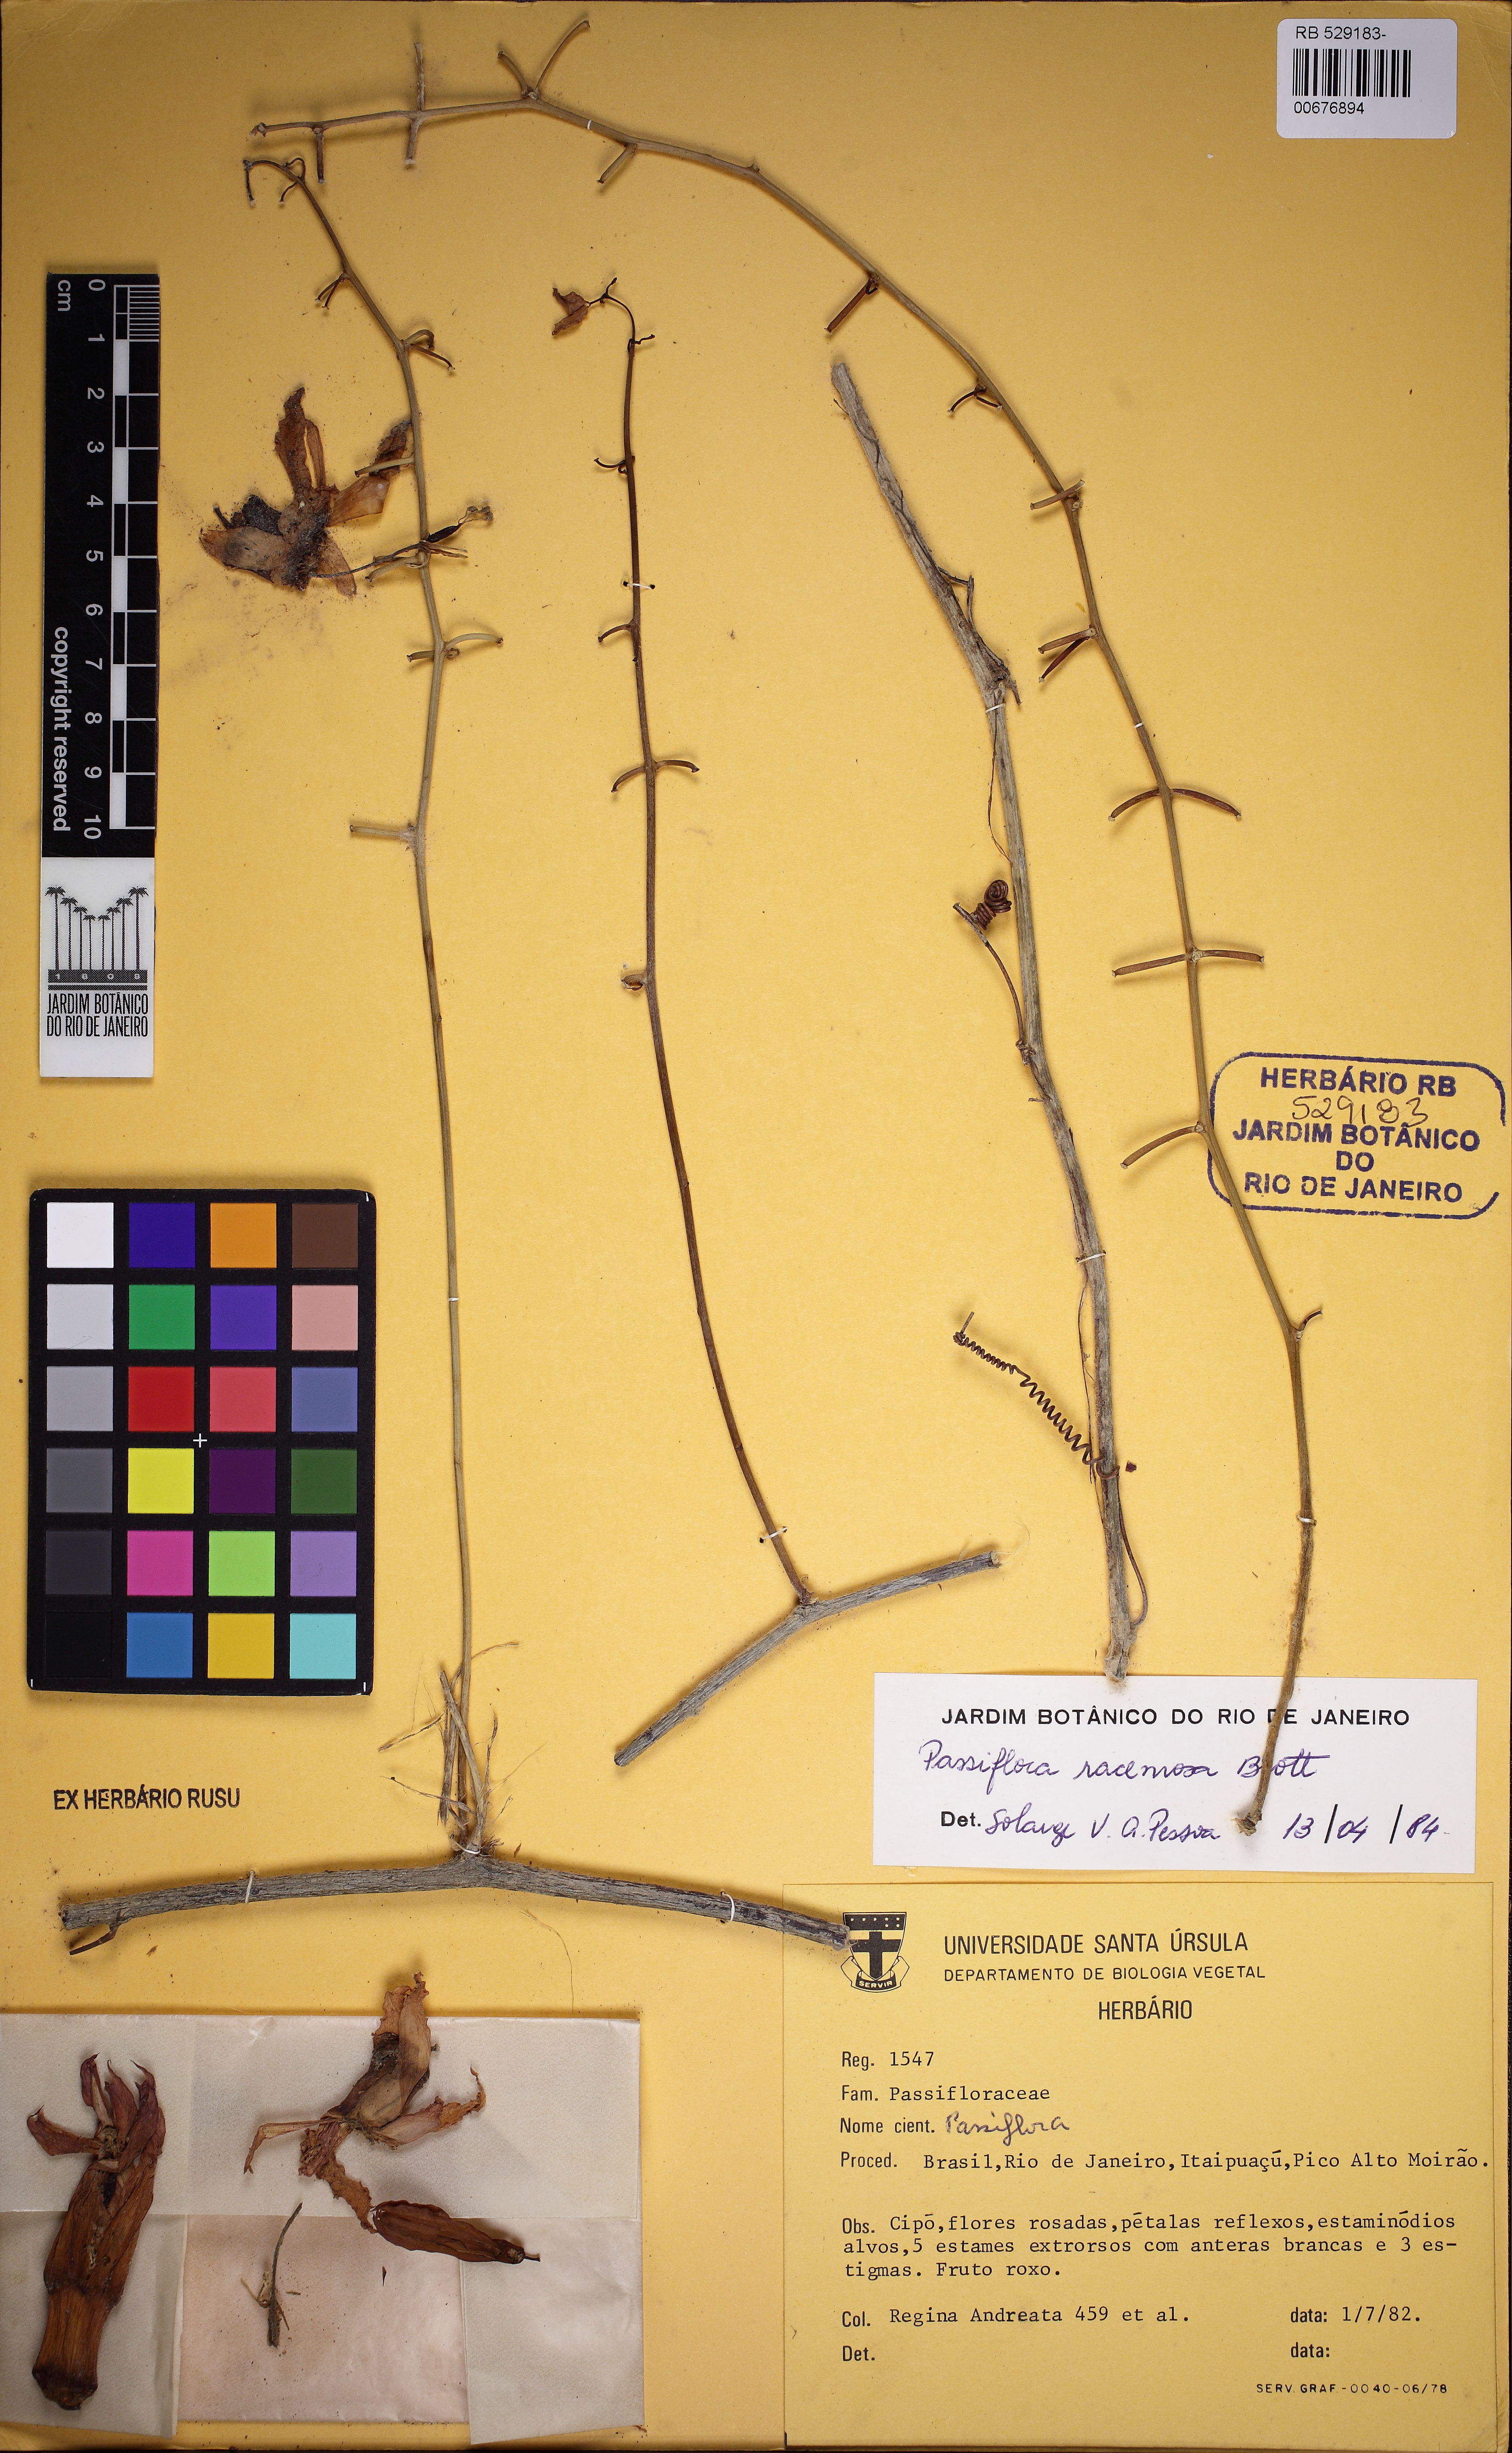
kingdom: Plantae
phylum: Tracheophyta
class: Magnoliopsida
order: Malpighiales
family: Passifloraceae
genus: Passiflora
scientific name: Passiflora racemosa
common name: Red passionflower
